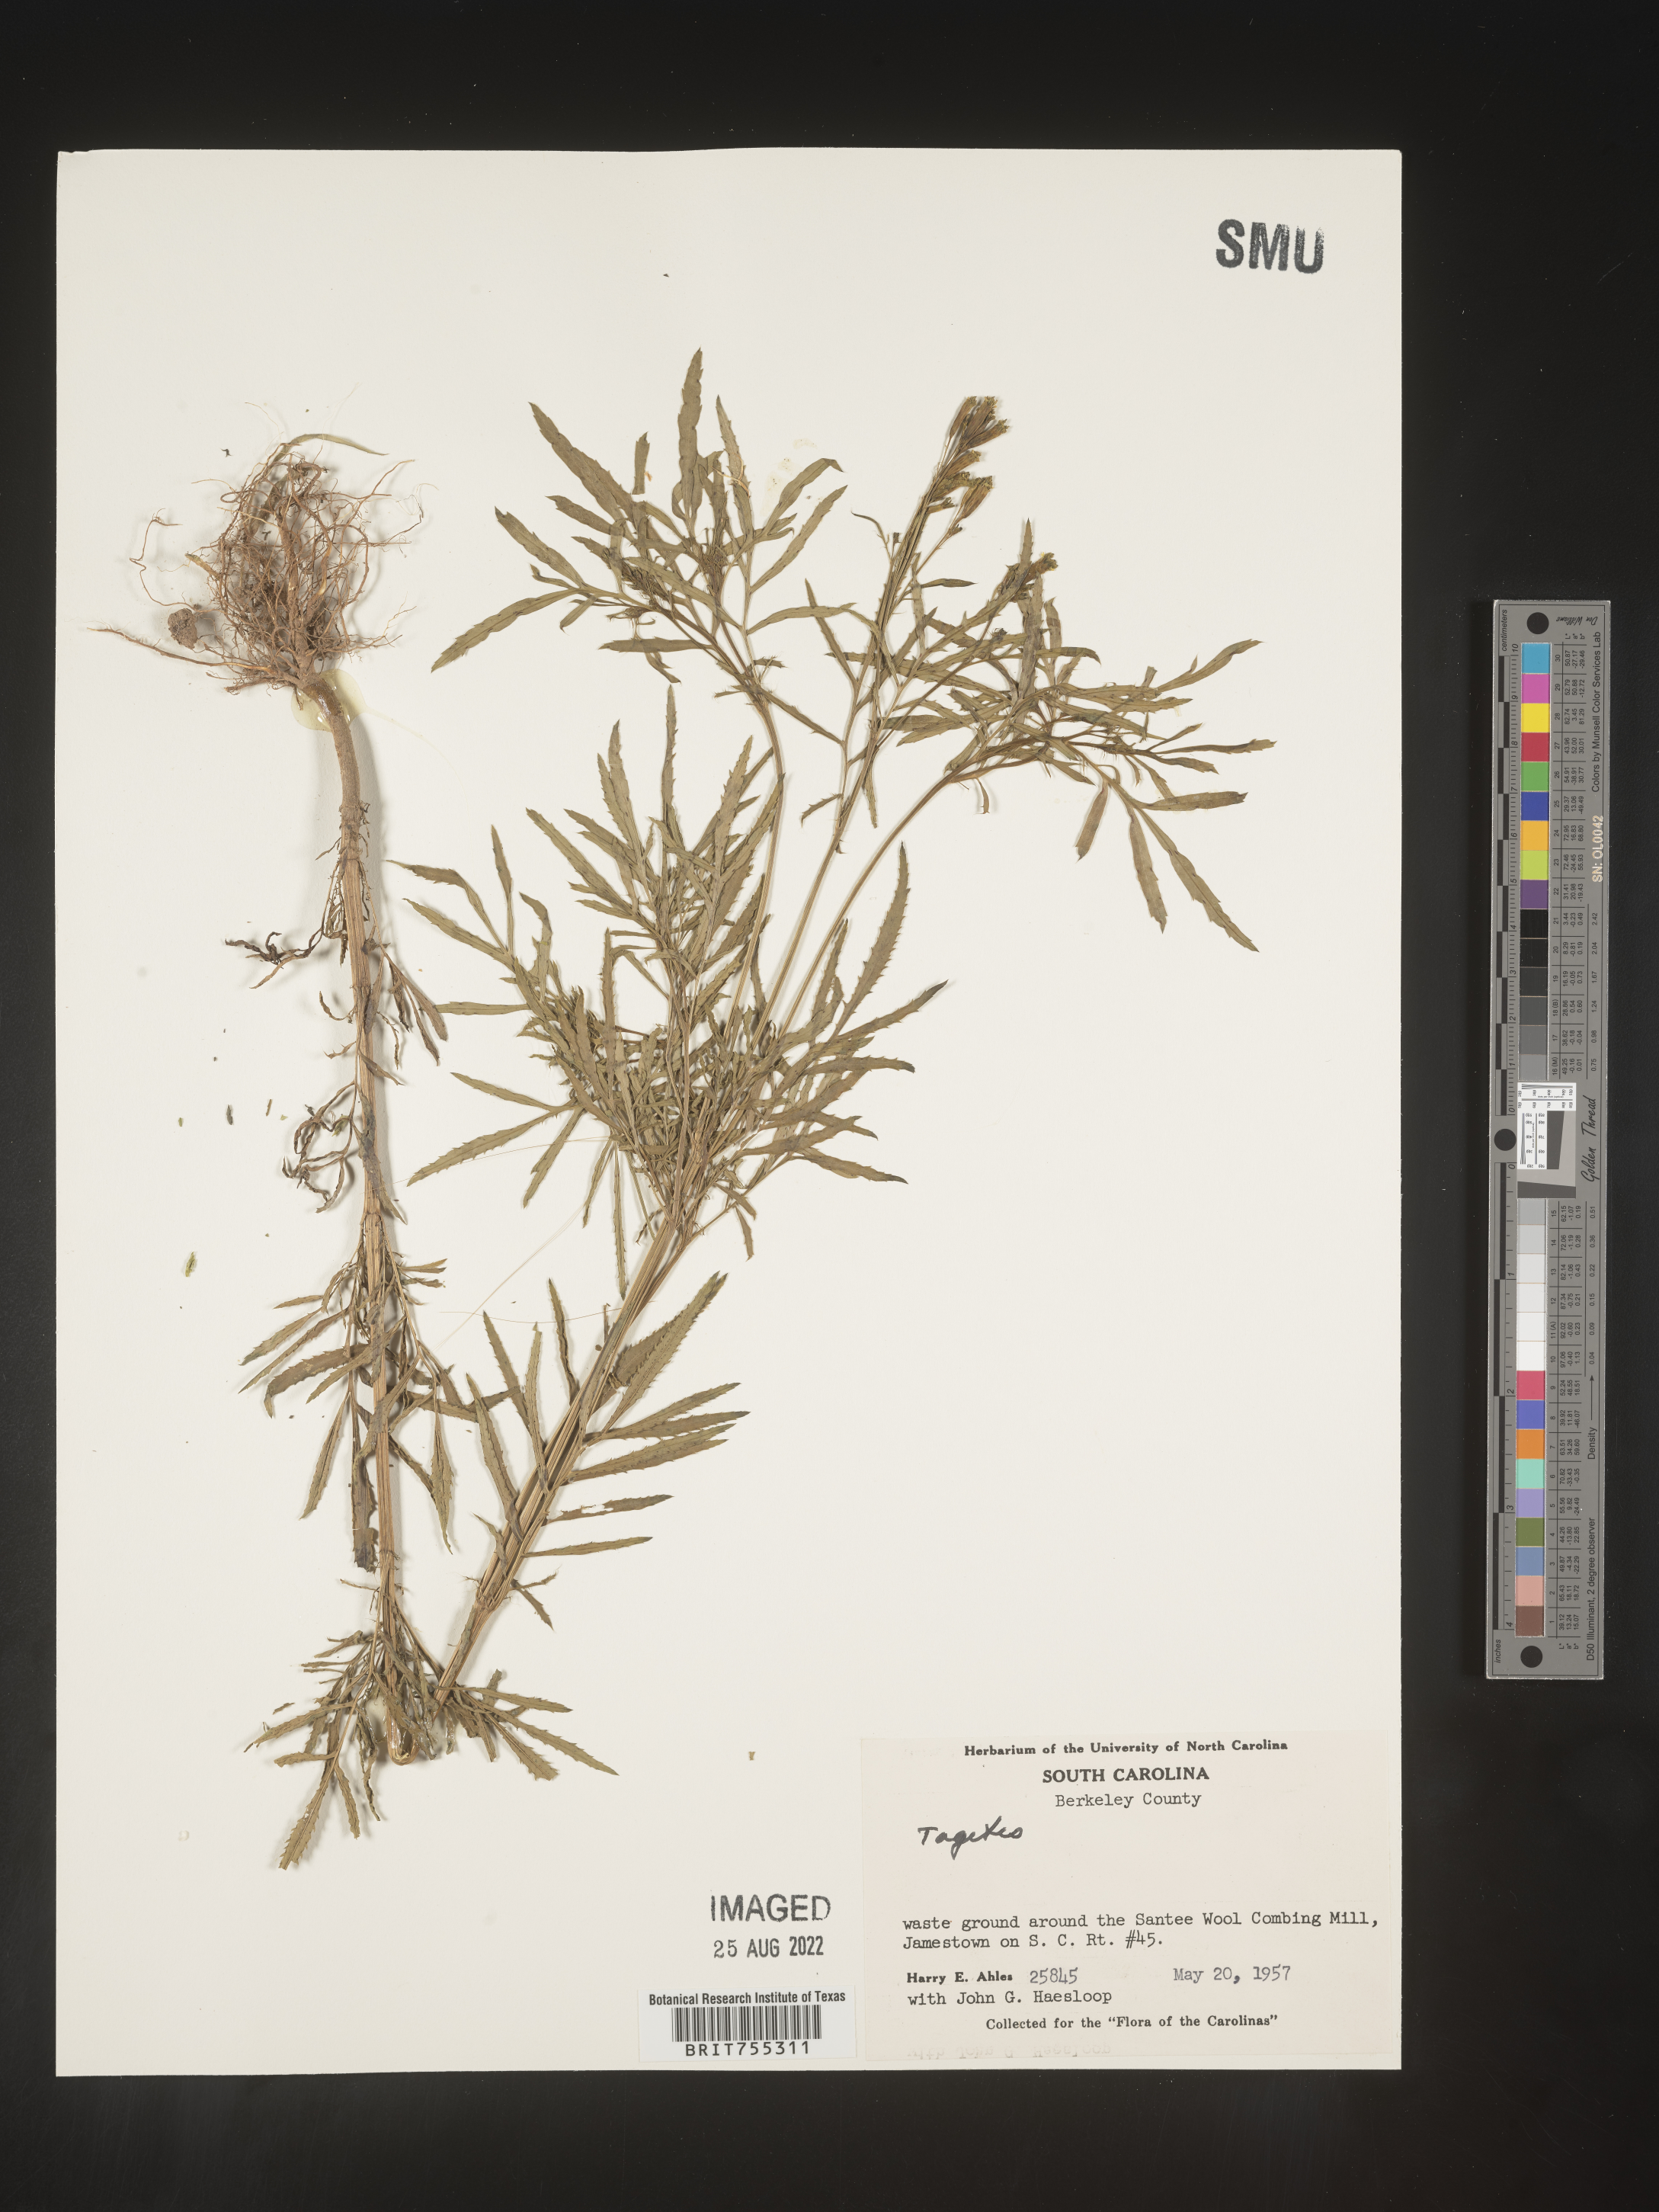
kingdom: Plantae
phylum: Tracheophyta
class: Magnoliopsida
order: Asterales
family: Asteraceae
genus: Tagetes
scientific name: Tagetes
